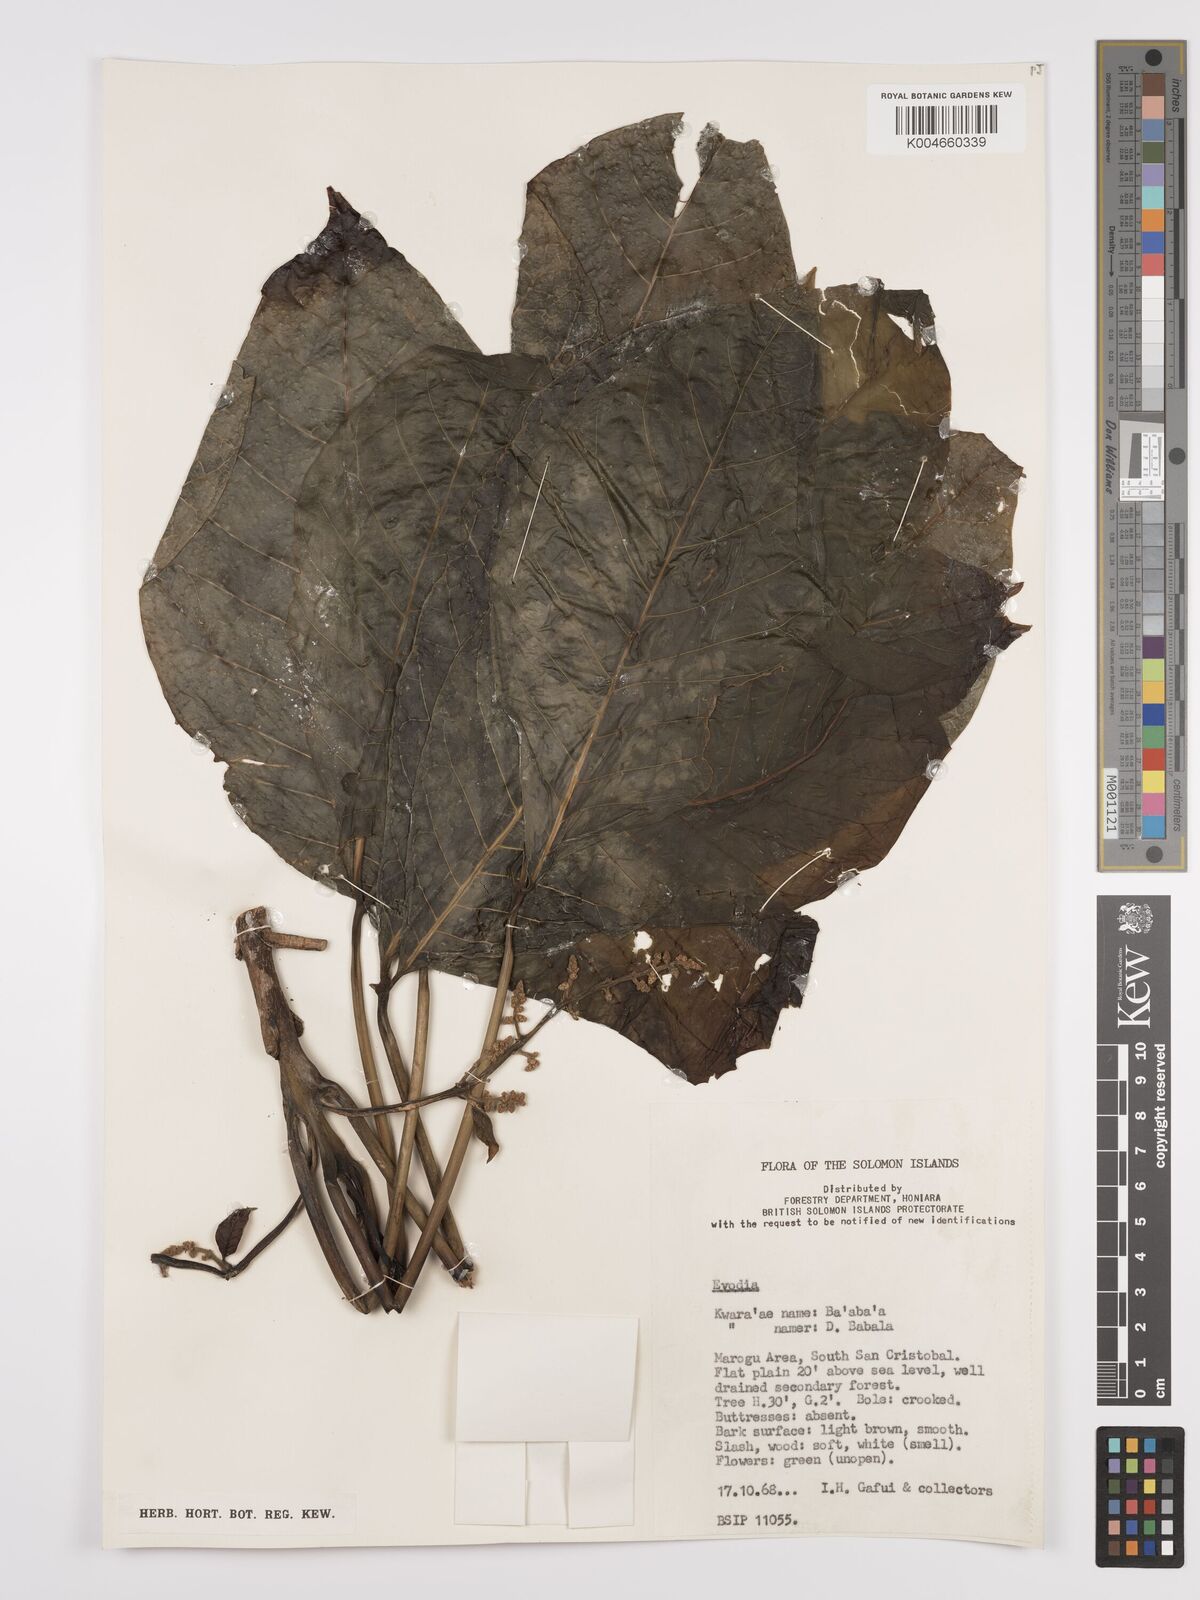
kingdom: Plantae
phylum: Tracheophyta
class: Magnoliopsida
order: Sapindales
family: Rutaceae
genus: Euodia
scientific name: Euodia
